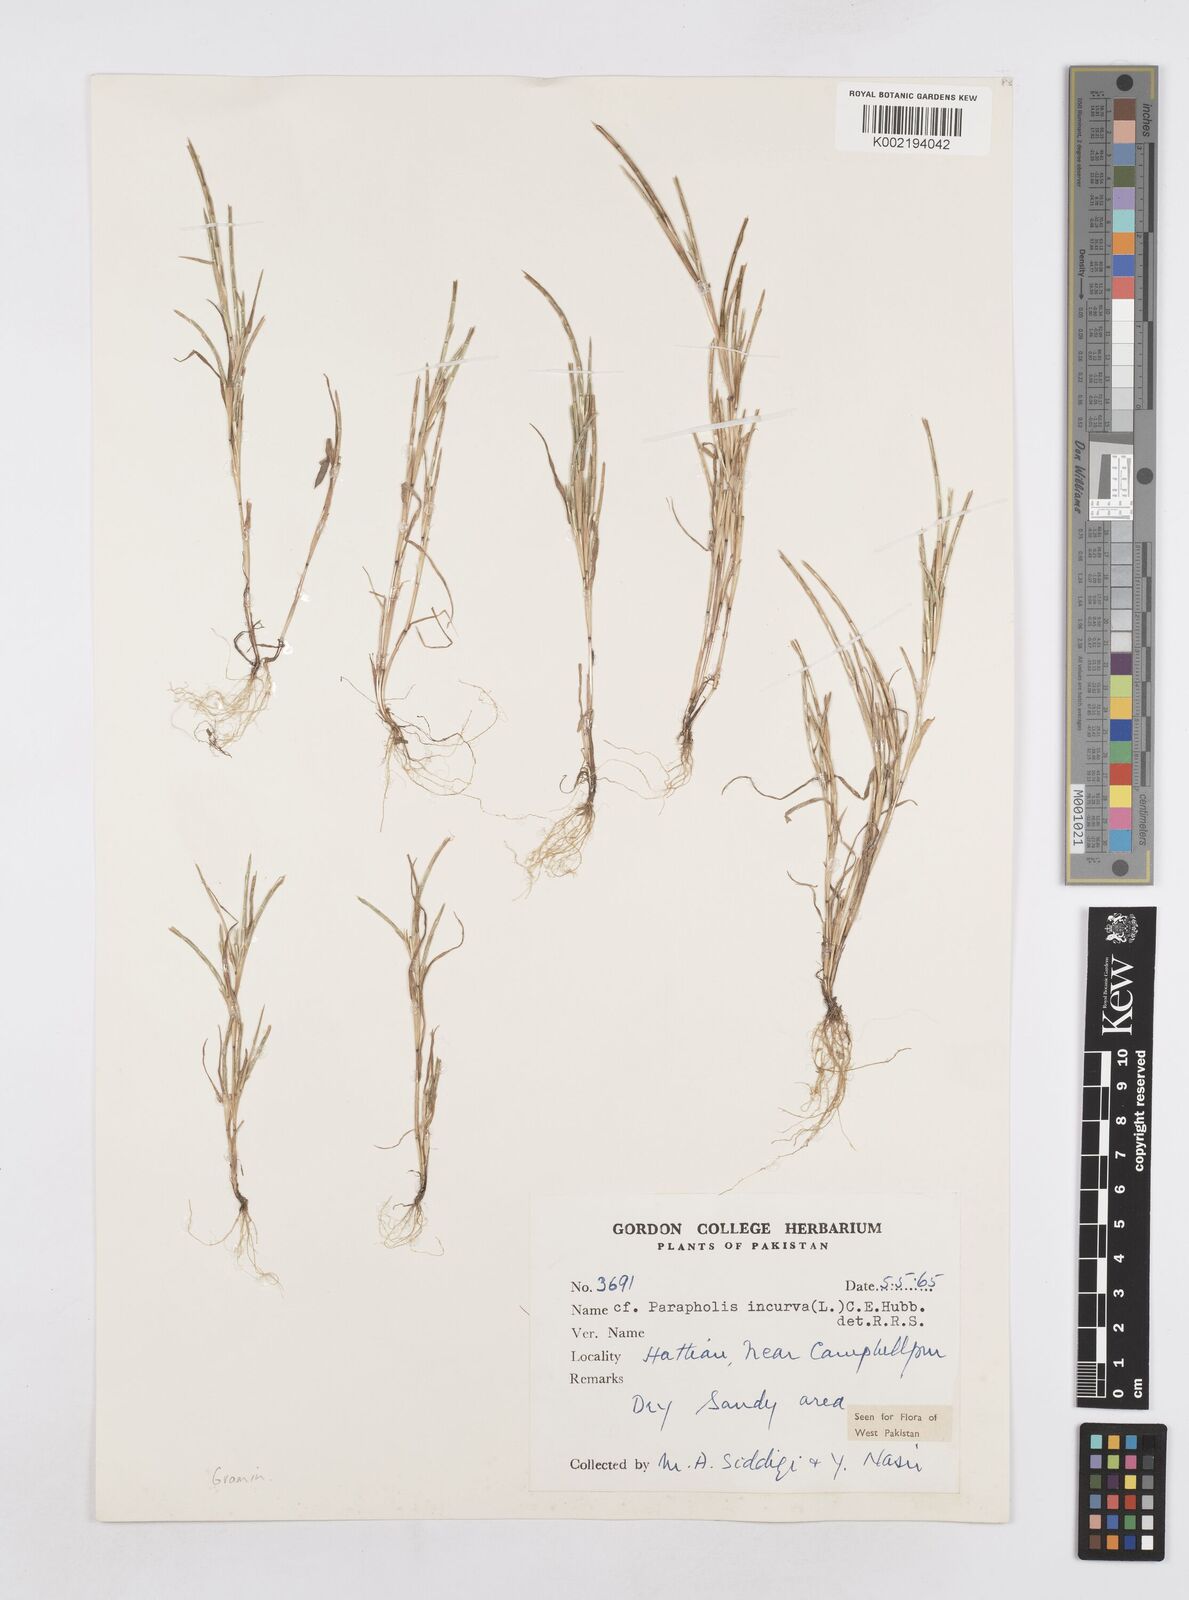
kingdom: Plantae
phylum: Tracheophyta
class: Liliopsida
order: Poales
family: Poaceae
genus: Parapholis
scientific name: Parapholis incurva
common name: Curved sicklegrass
